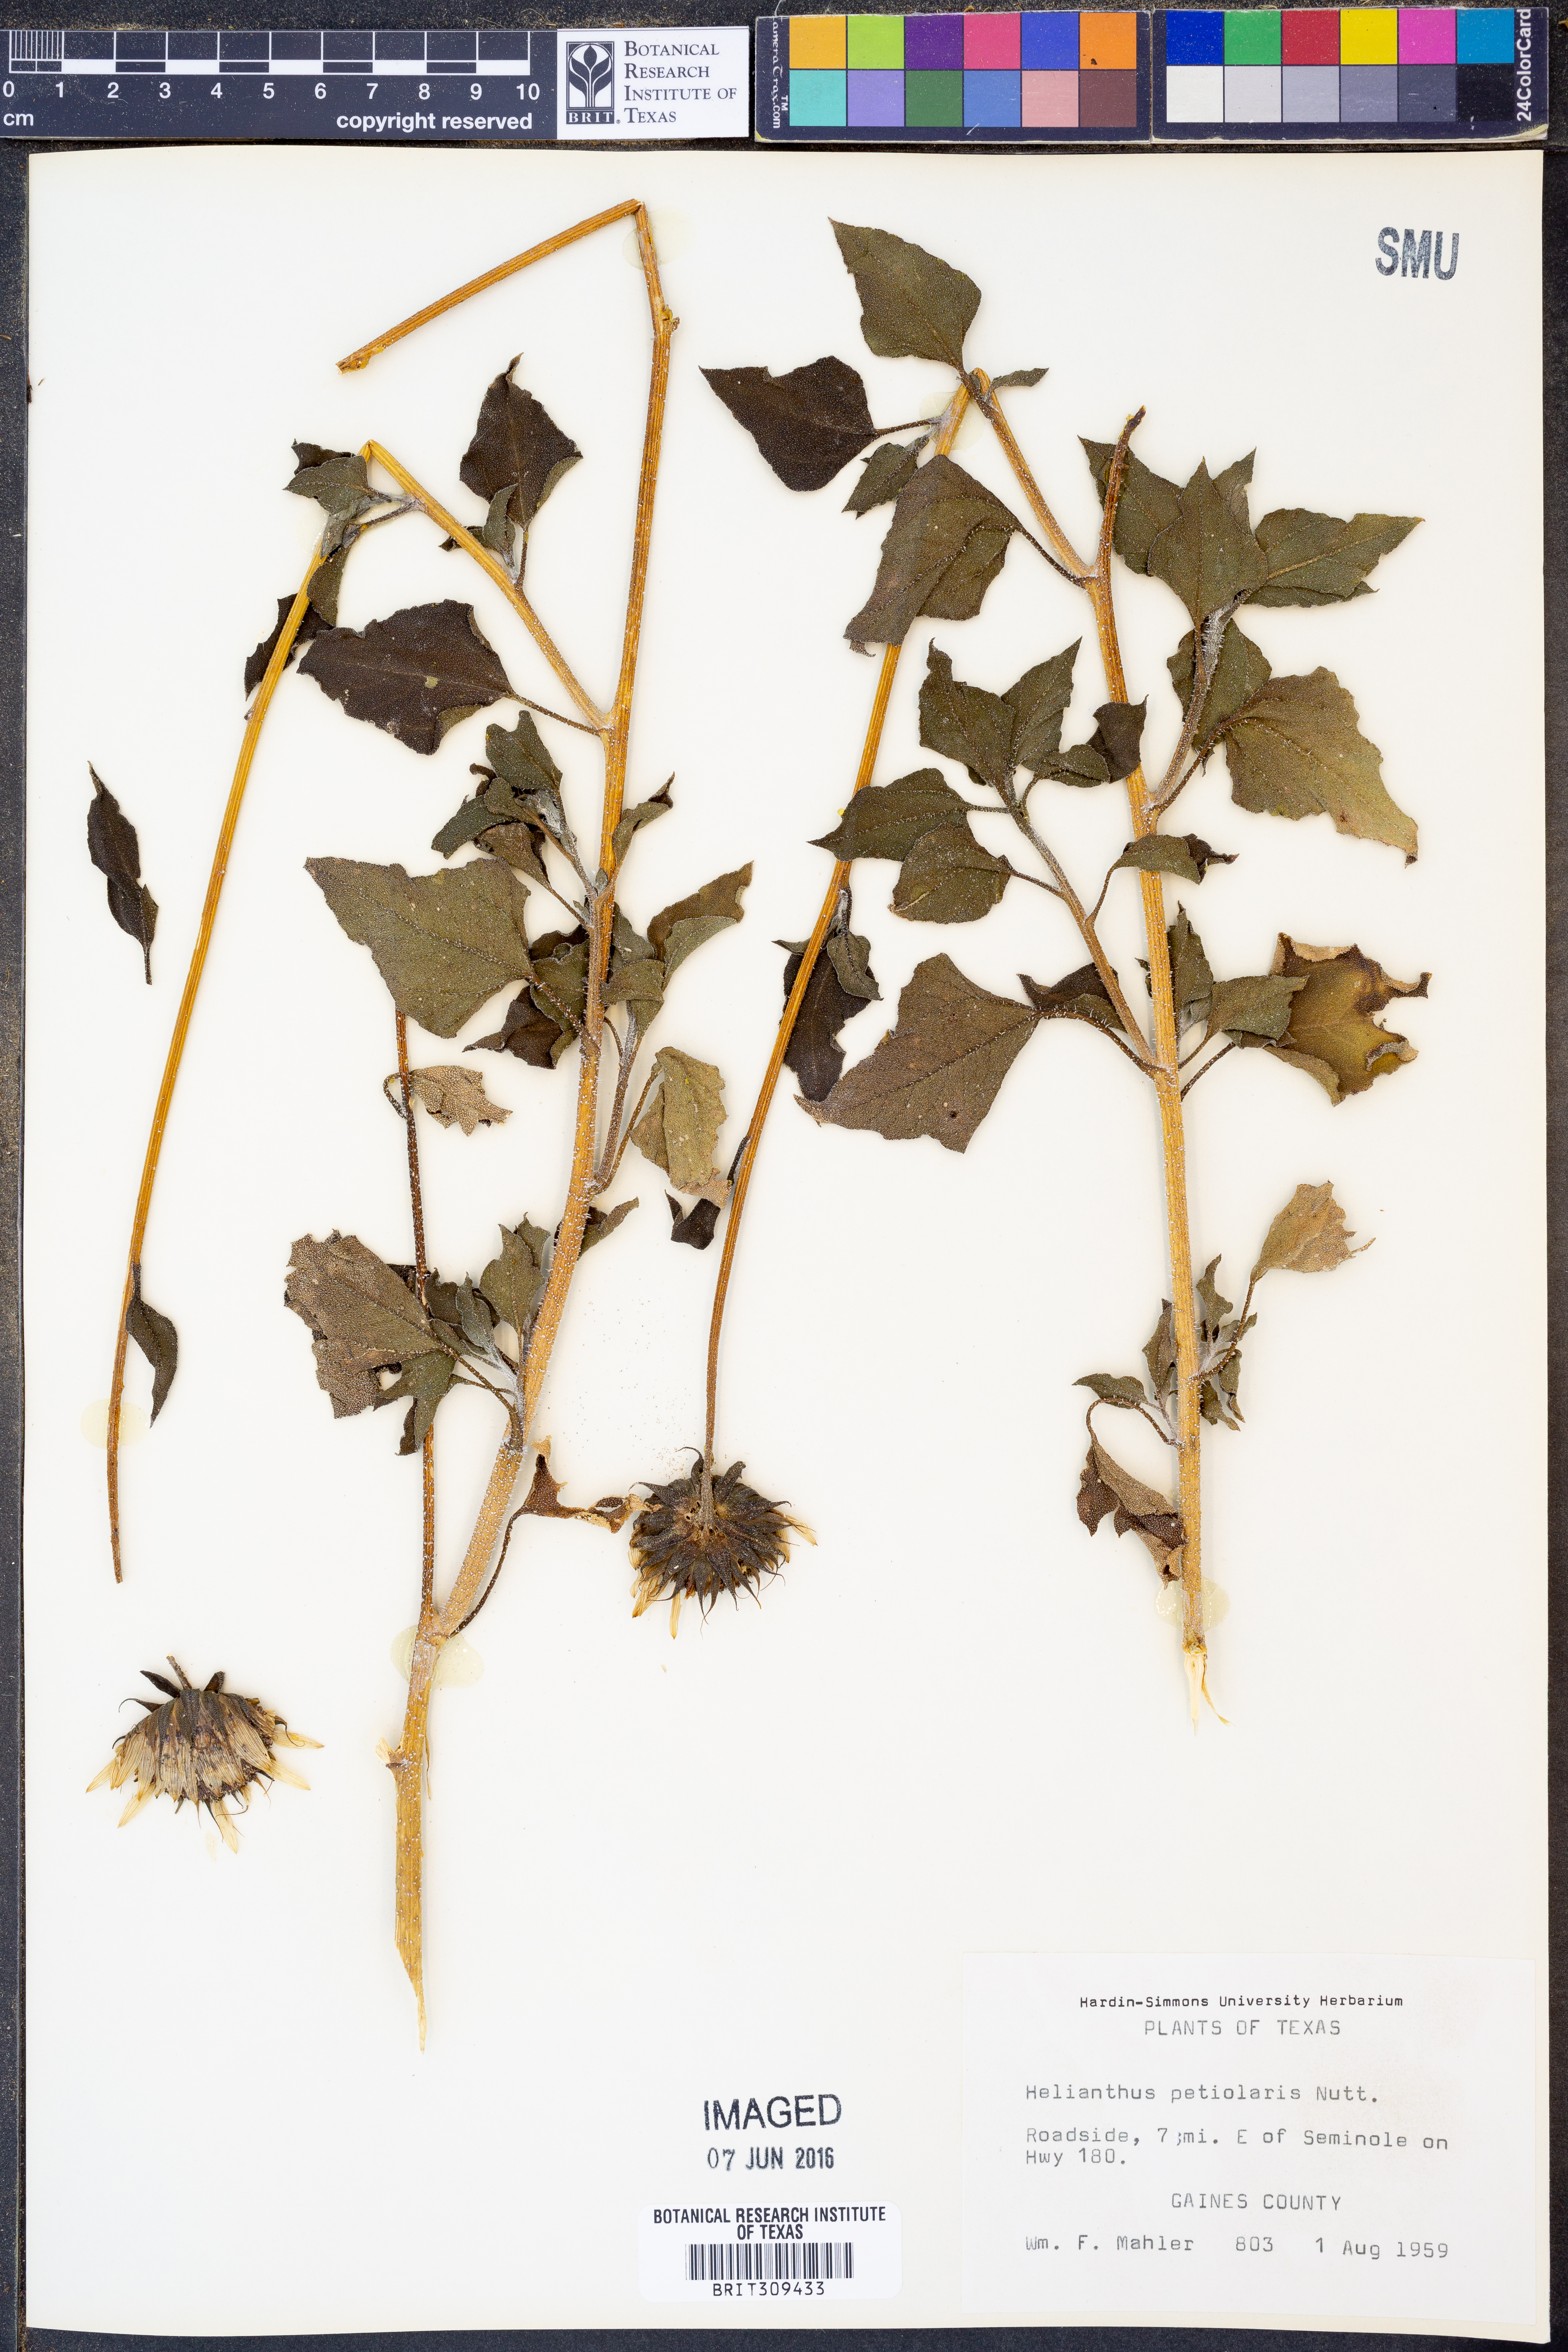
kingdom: Plantae
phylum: Tracheophyta
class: Magnoliopsida
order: Asterales
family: Asteraceae
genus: Helianthus
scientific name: Helianthus petiolaris
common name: Lesser sunflower
